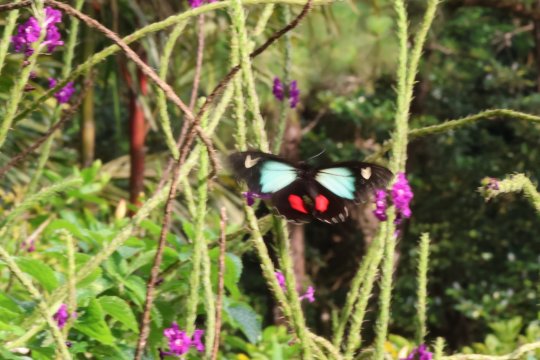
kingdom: Animalia
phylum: Arthropoda
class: Insecta
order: Lepidoptera
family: Papilionidae
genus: Parides
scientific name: Parides childrenae
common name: Green-celled Cattleheart
